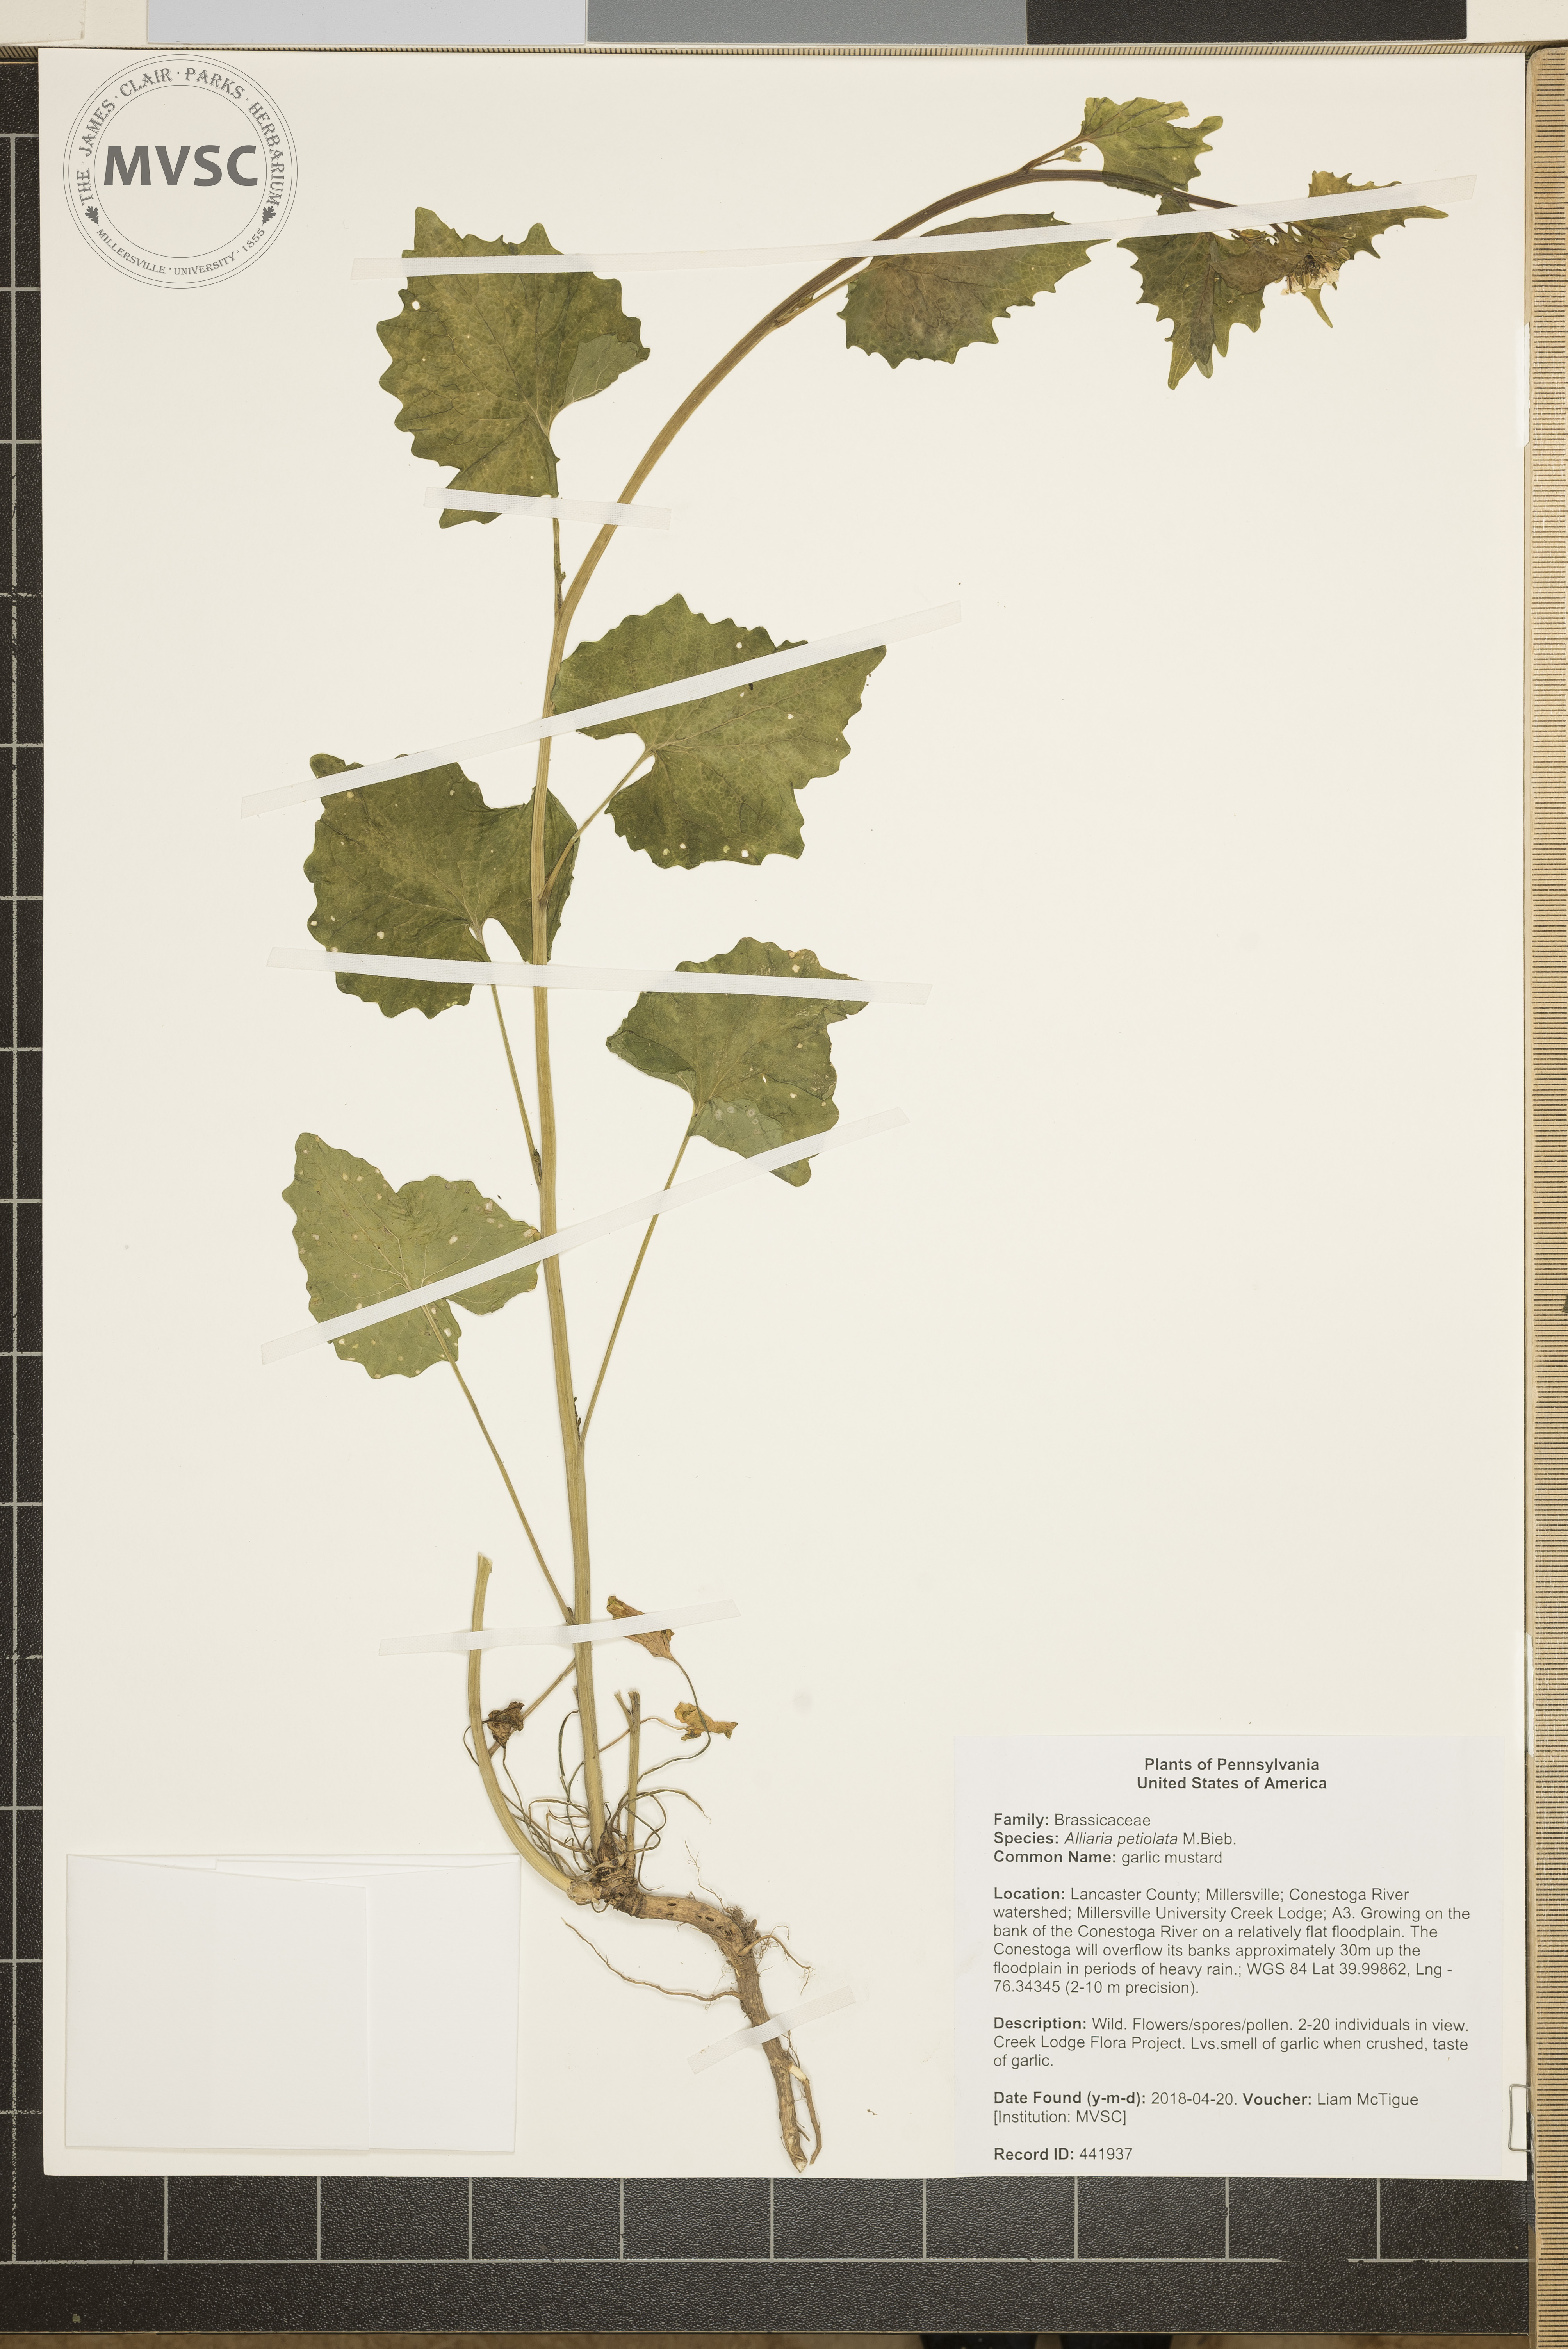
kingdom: Plantae
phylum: Tracheophyta
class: Magnoliopsida
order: Brassicales
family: Brassicaceae
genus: Alliaria
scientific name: Alliaria petiolata
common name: garlic mustard
